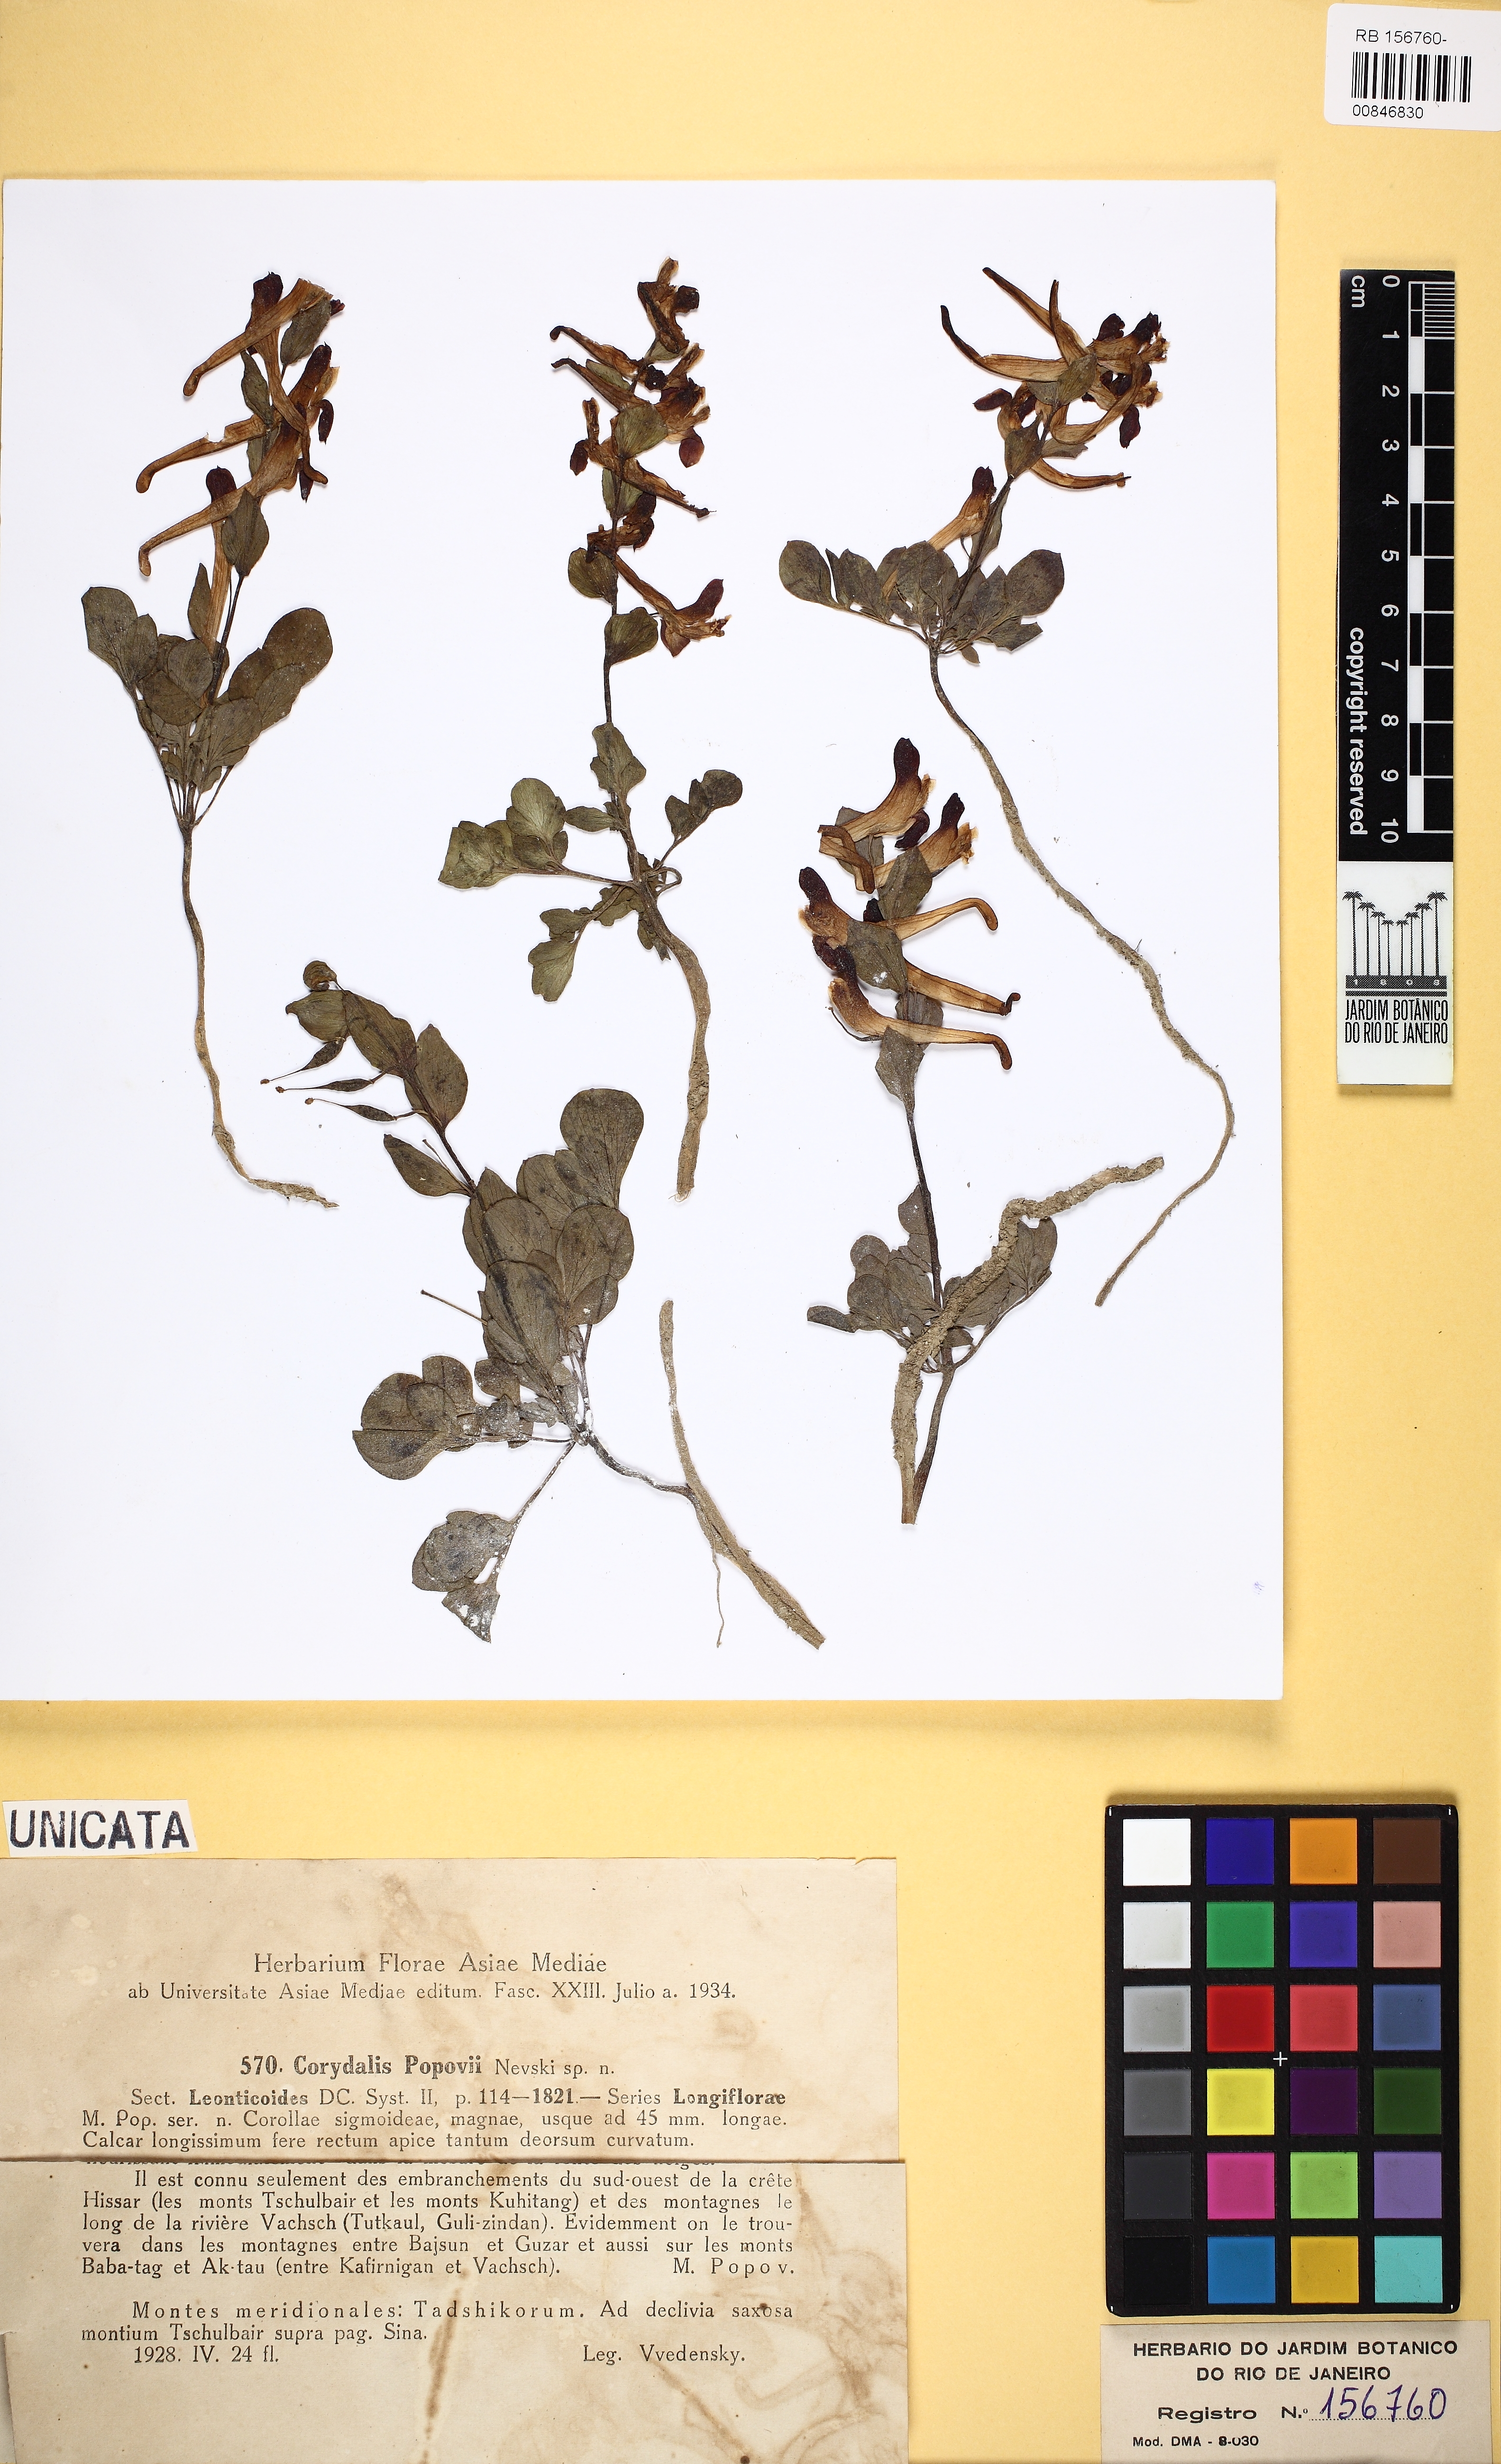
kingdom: Plantae
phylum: Tracheophyta
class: Magnoliopsida
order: Ranunculales
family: Papaveraceae
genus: Corydalis
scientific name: Corydalis popovii
